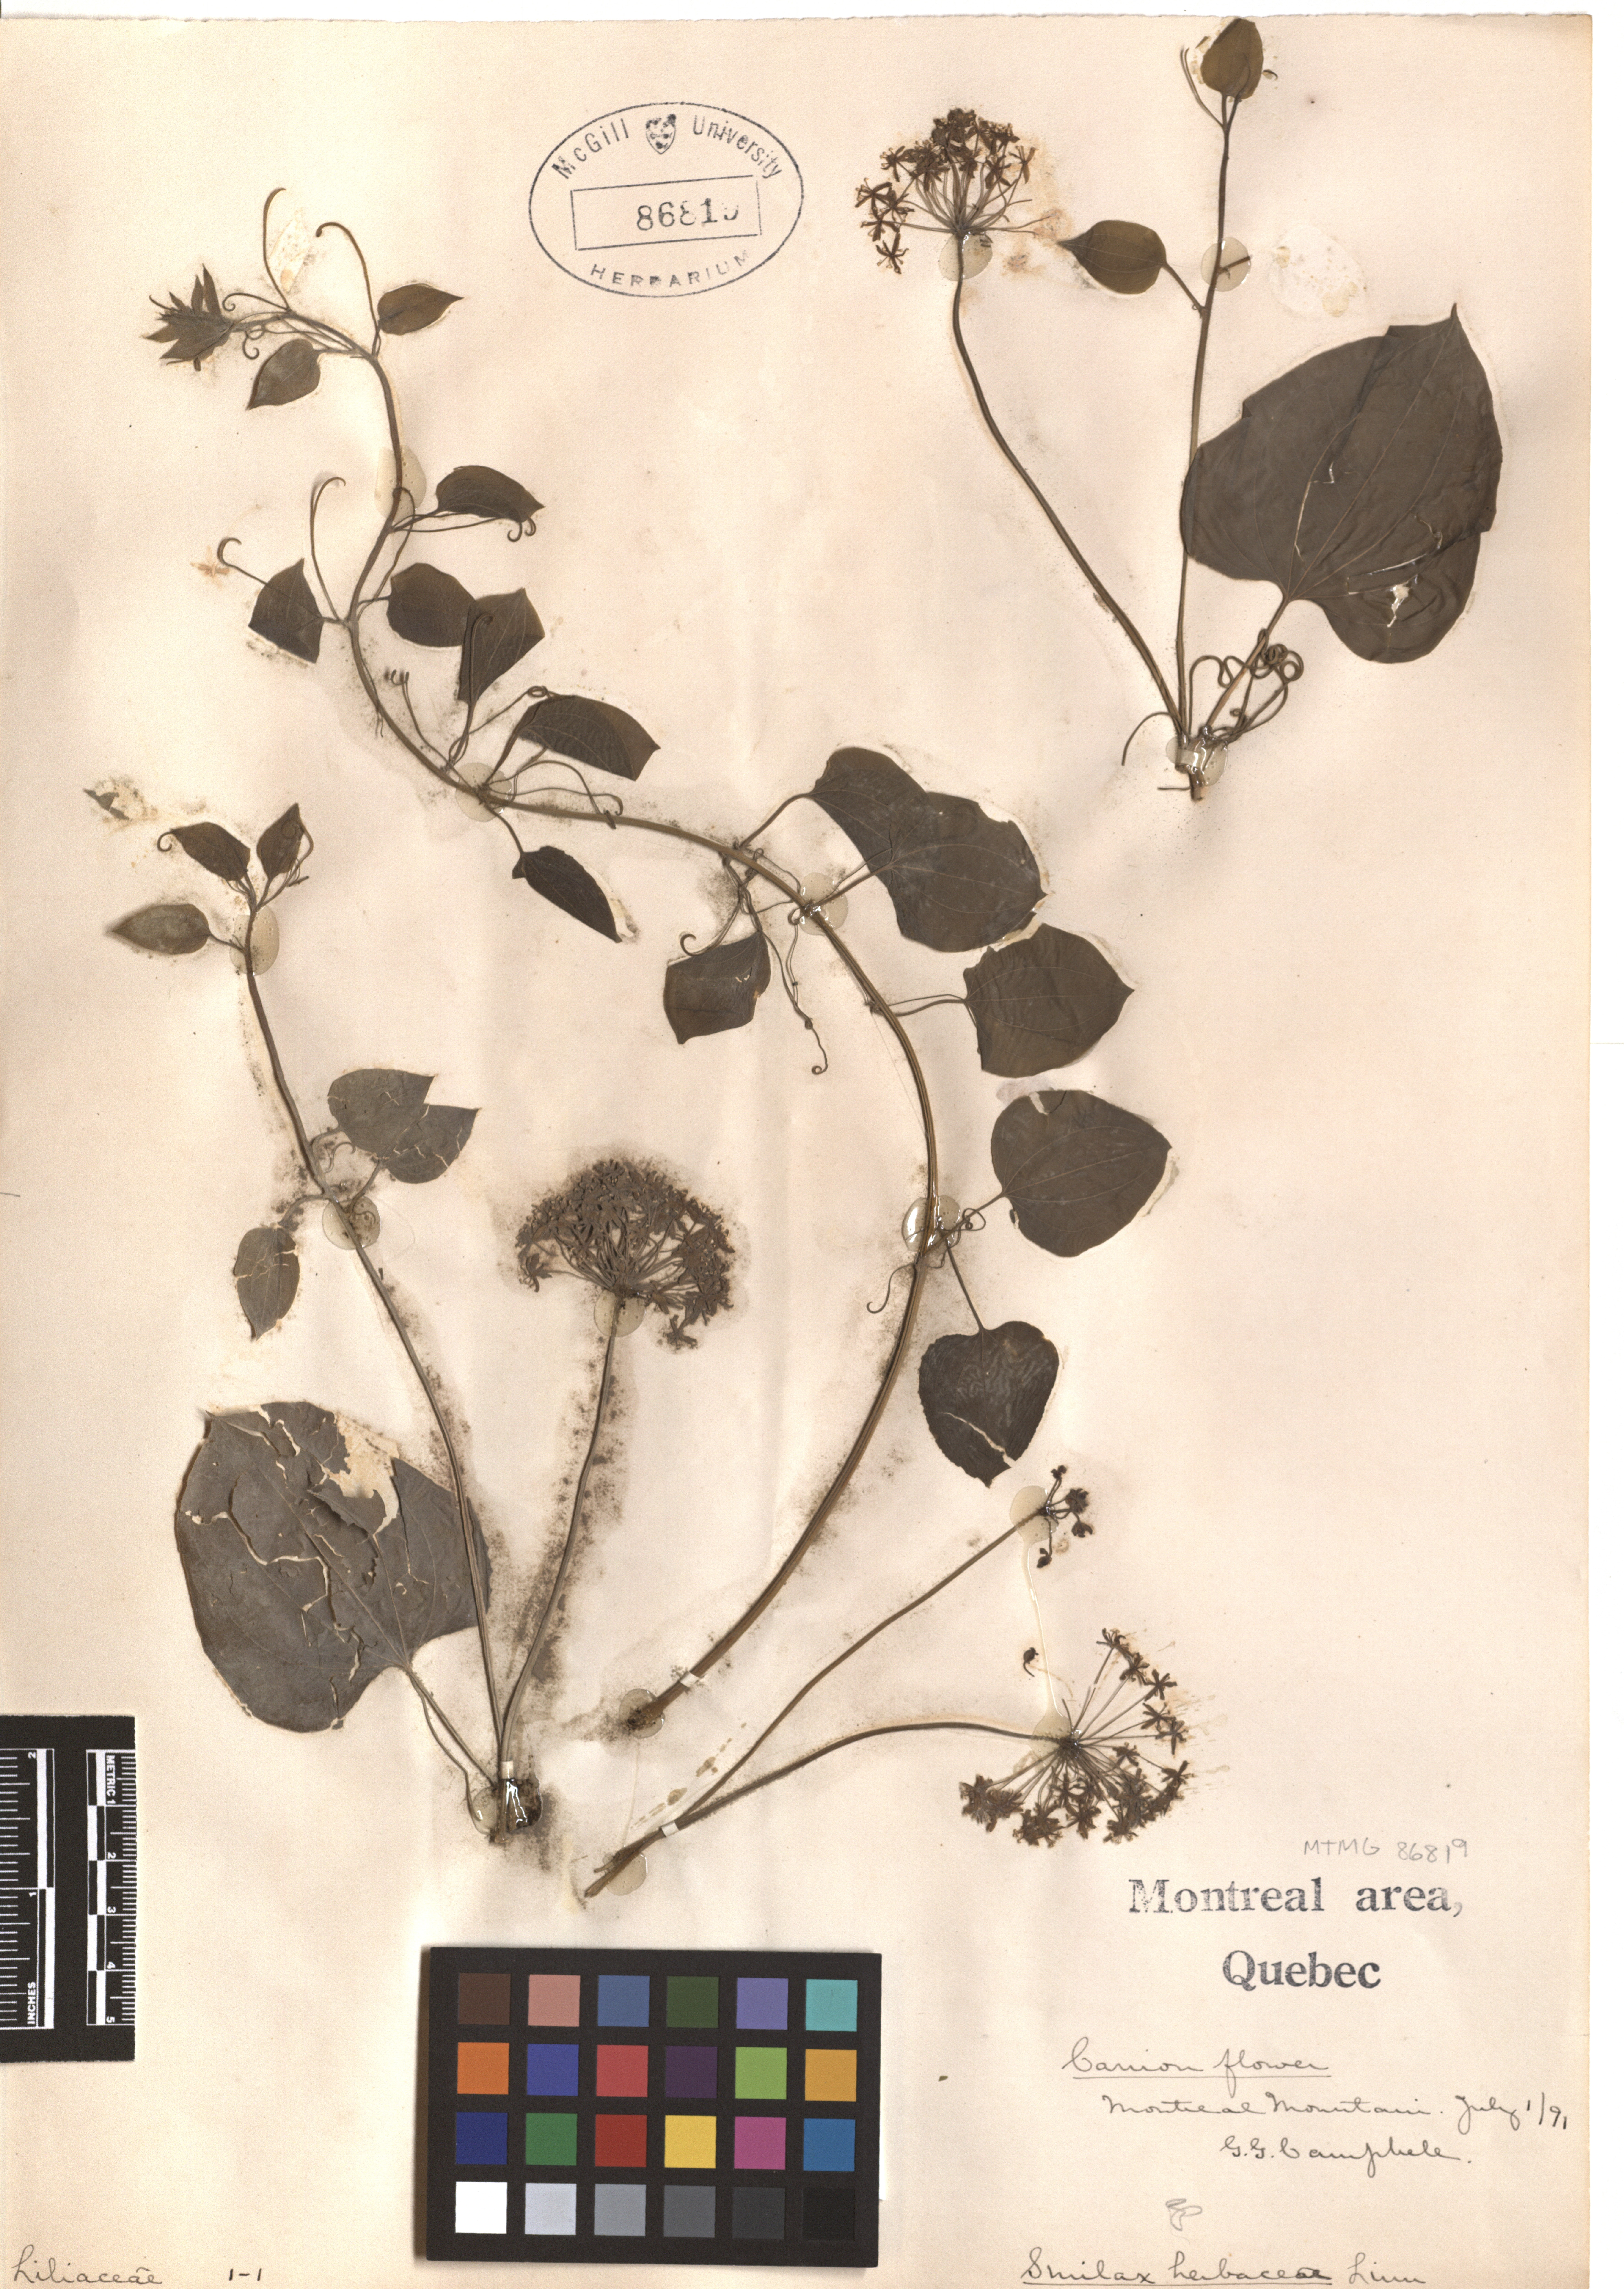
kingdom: Plantae
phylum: Tracheophyta
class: Liliopsida
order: Liliales
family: Smilacaceae
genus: Smilax
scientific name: Smilax herbacea
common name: Jacob's-ladder
